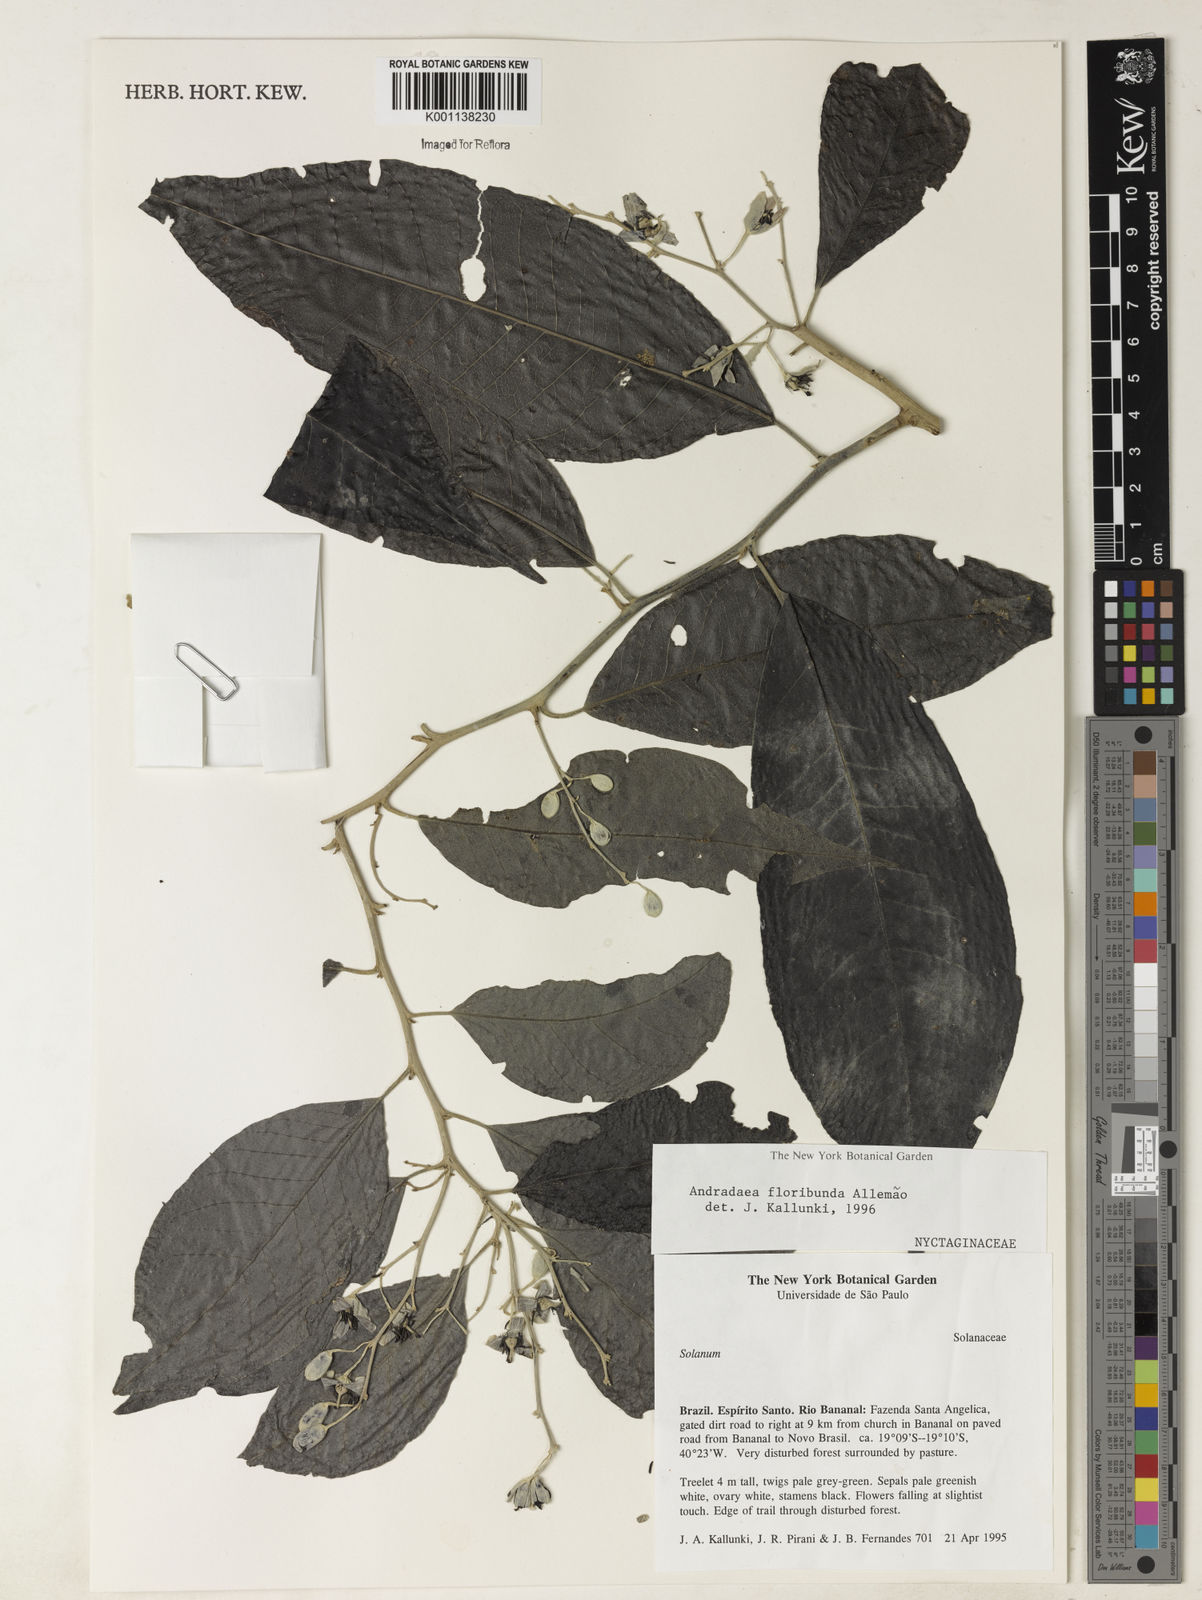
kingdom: Plantae
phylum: Tracheophyta
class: Magnoliopsida
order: Caryophyllales
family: Nyctaginaceae
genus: Andradea
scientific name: Andradea
